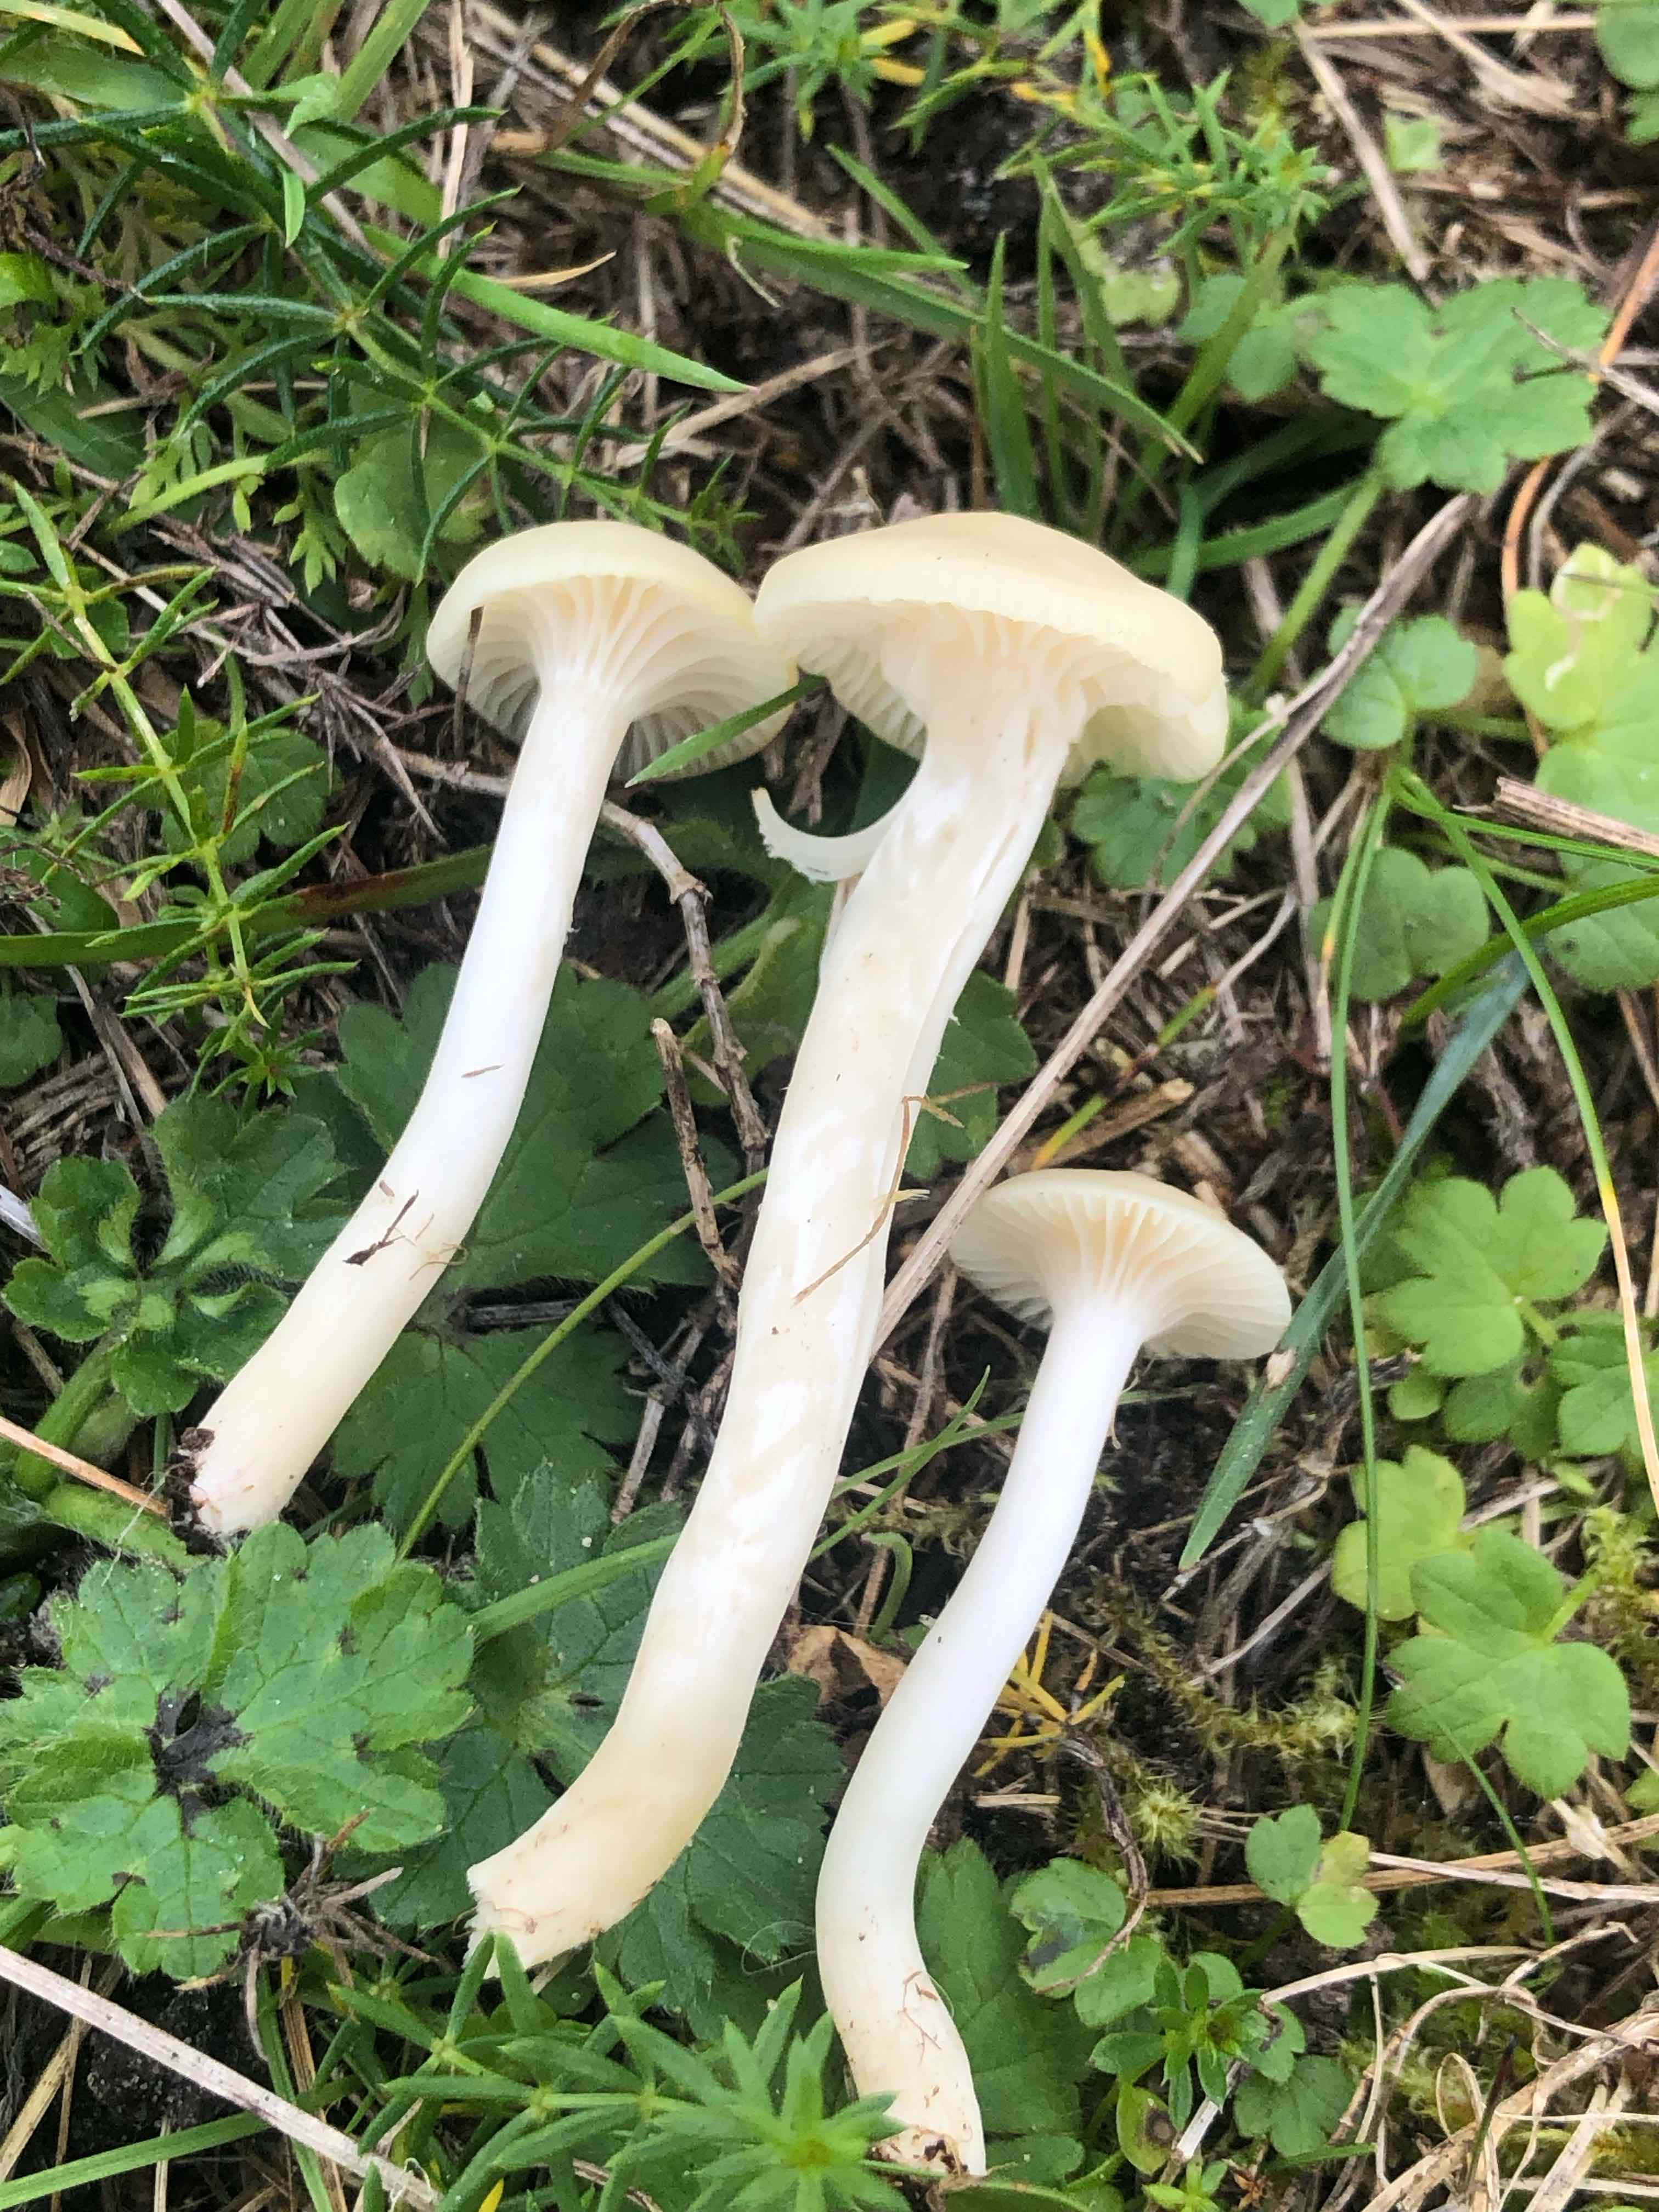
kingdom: Fungi
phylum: Basidiomycota
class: Agaricomycetes
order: Agaricales
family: Hygrophoraceae
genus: Cuphophyllus
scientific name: Cuphophyllus russocoriaceus
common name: ruslæder-vokshat
